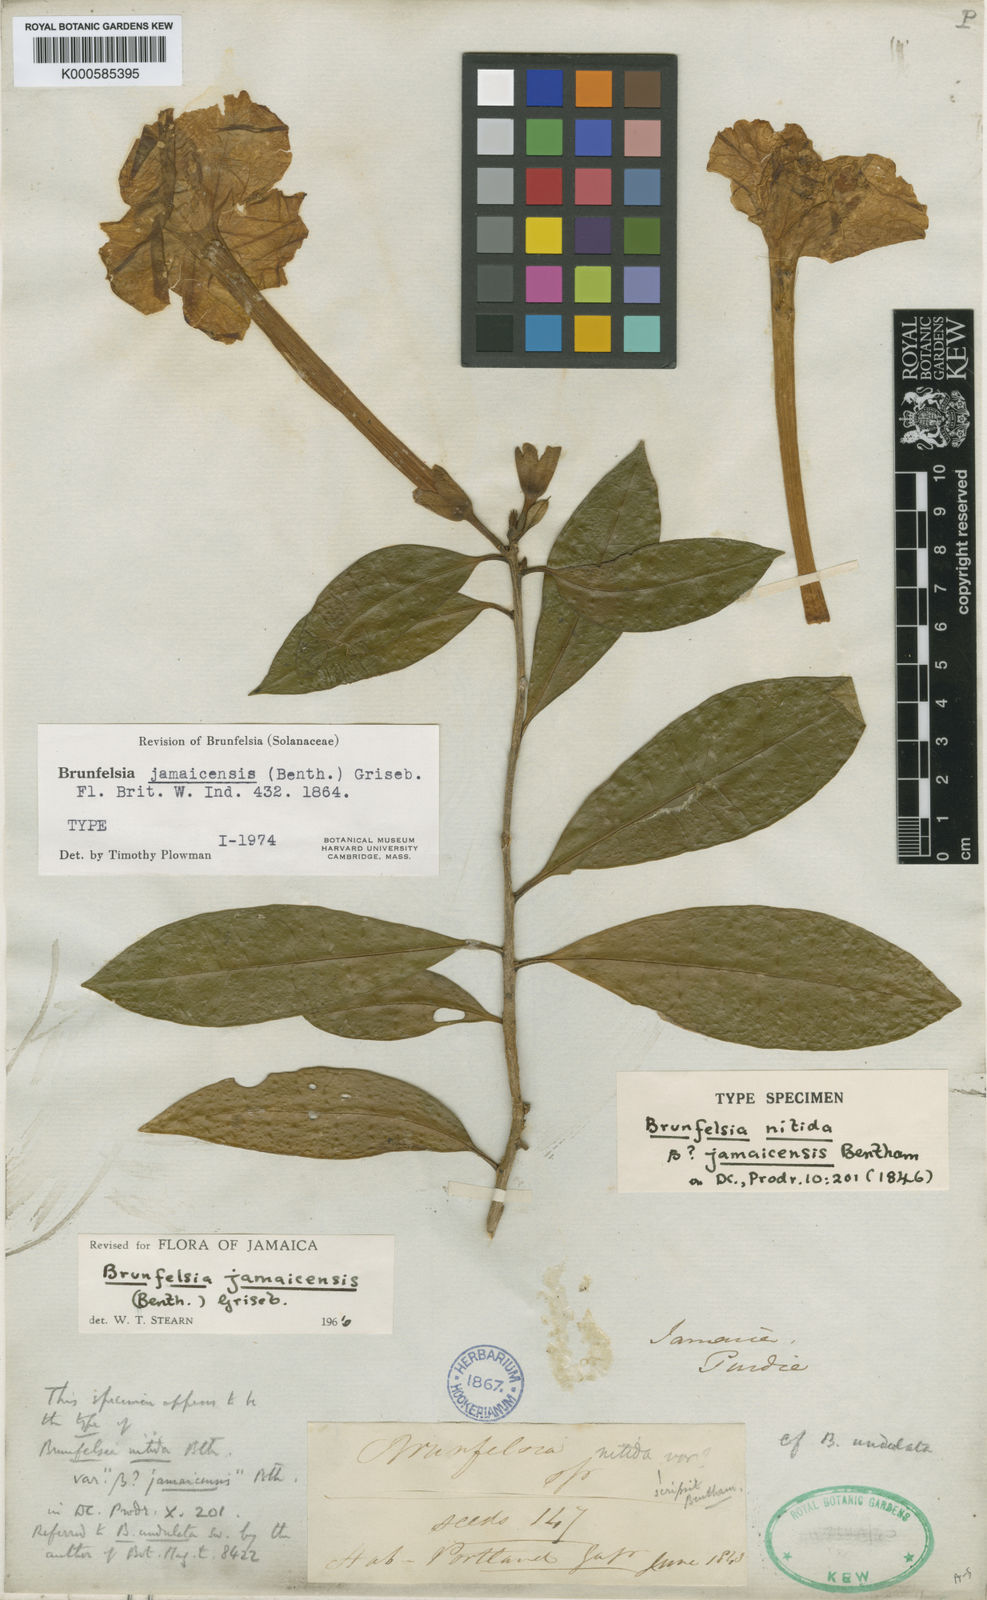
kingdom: Plantae
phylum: Tracheophyta
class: Magnoliopsida
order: Solanales
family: Solanaceae
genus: Brunfelsia
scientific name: Brunfelsia jamaicensis
